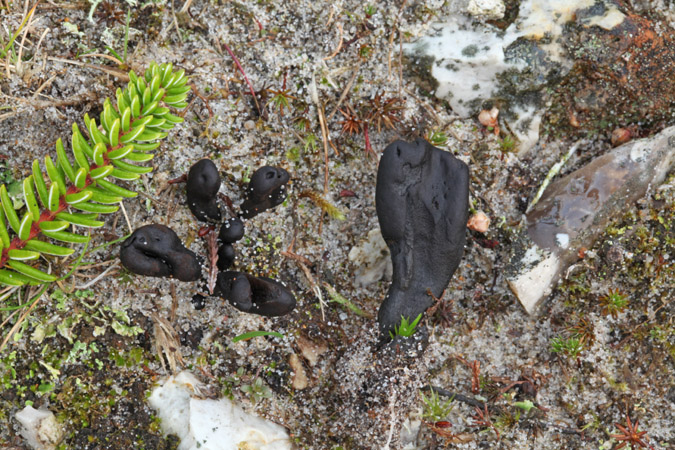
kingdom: Fungi
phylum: Ascomycota
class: Geoglossomycetes
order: Geoglossales
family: Geoglossaceae
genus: Sabuloglossum
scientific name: Sabuloglossum arenarium
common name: klit-jordtunge
